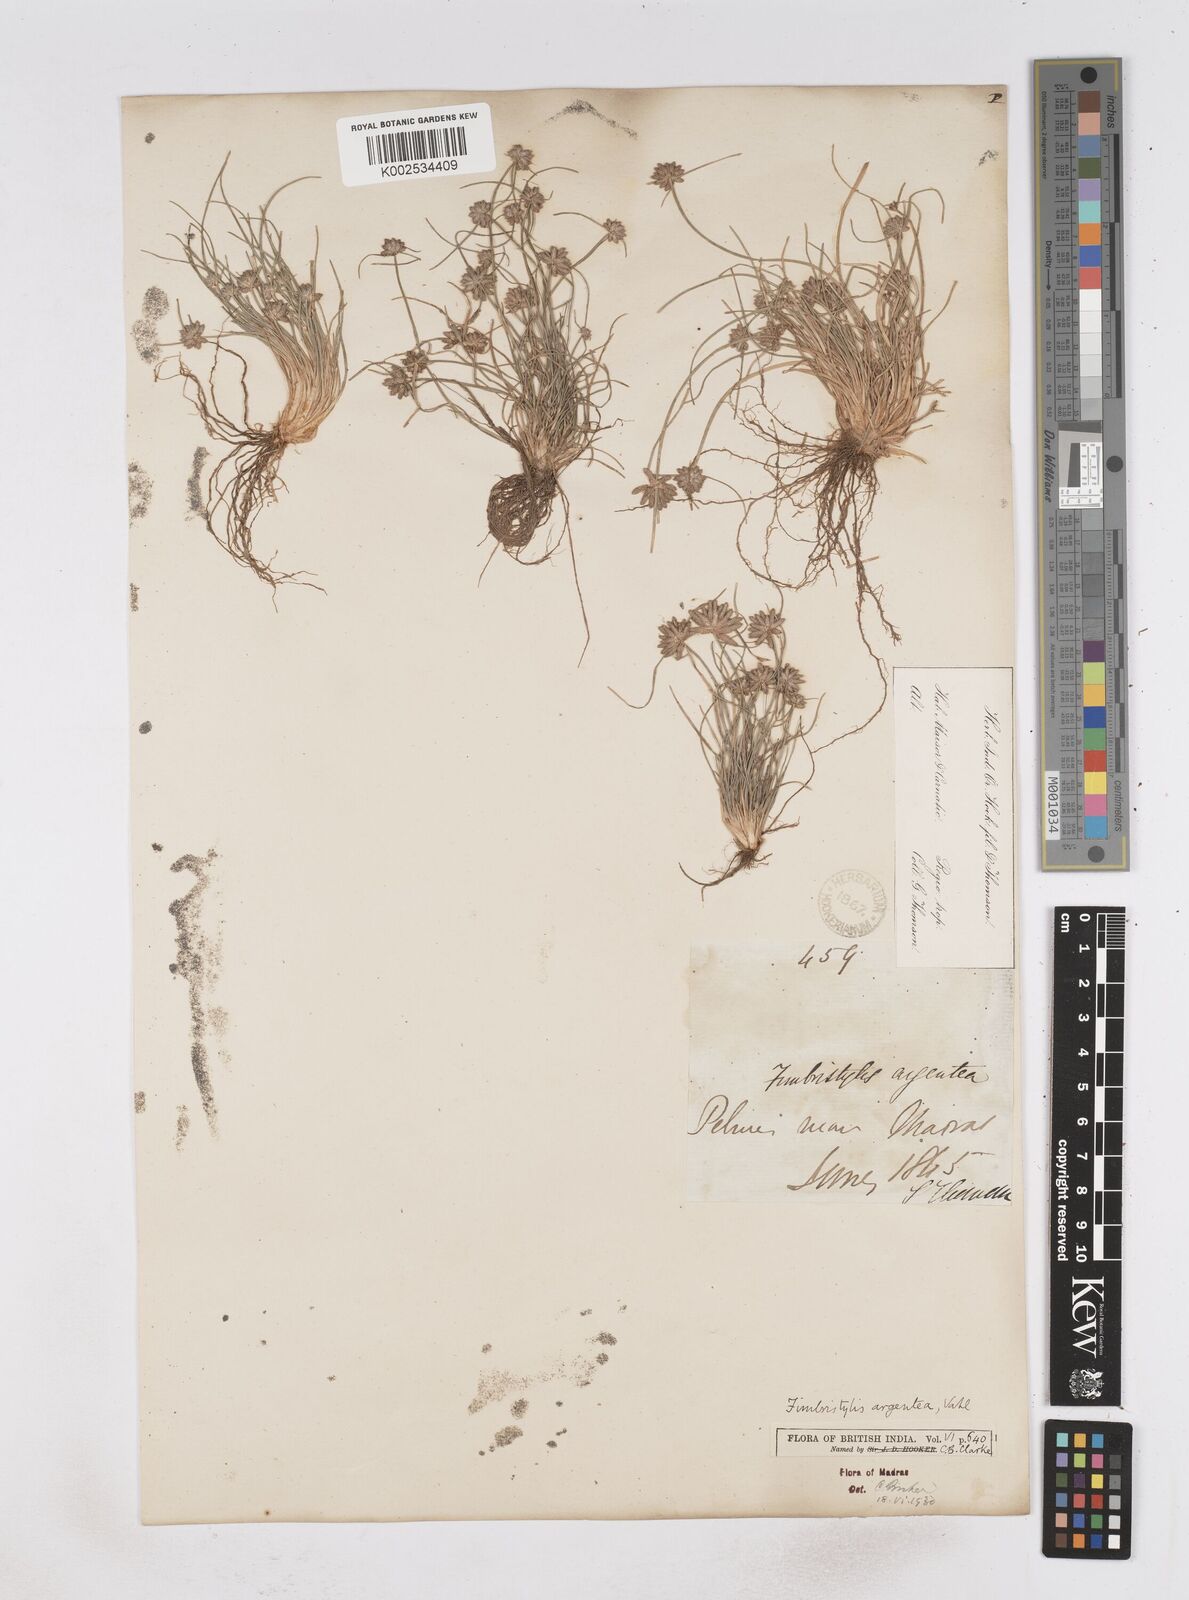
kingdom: Plantae
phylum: Tracheophyta
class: Liliopsida
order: Poales
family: Cyperaceae
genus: Fimbristylis
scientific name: Fimbristylis argentea
